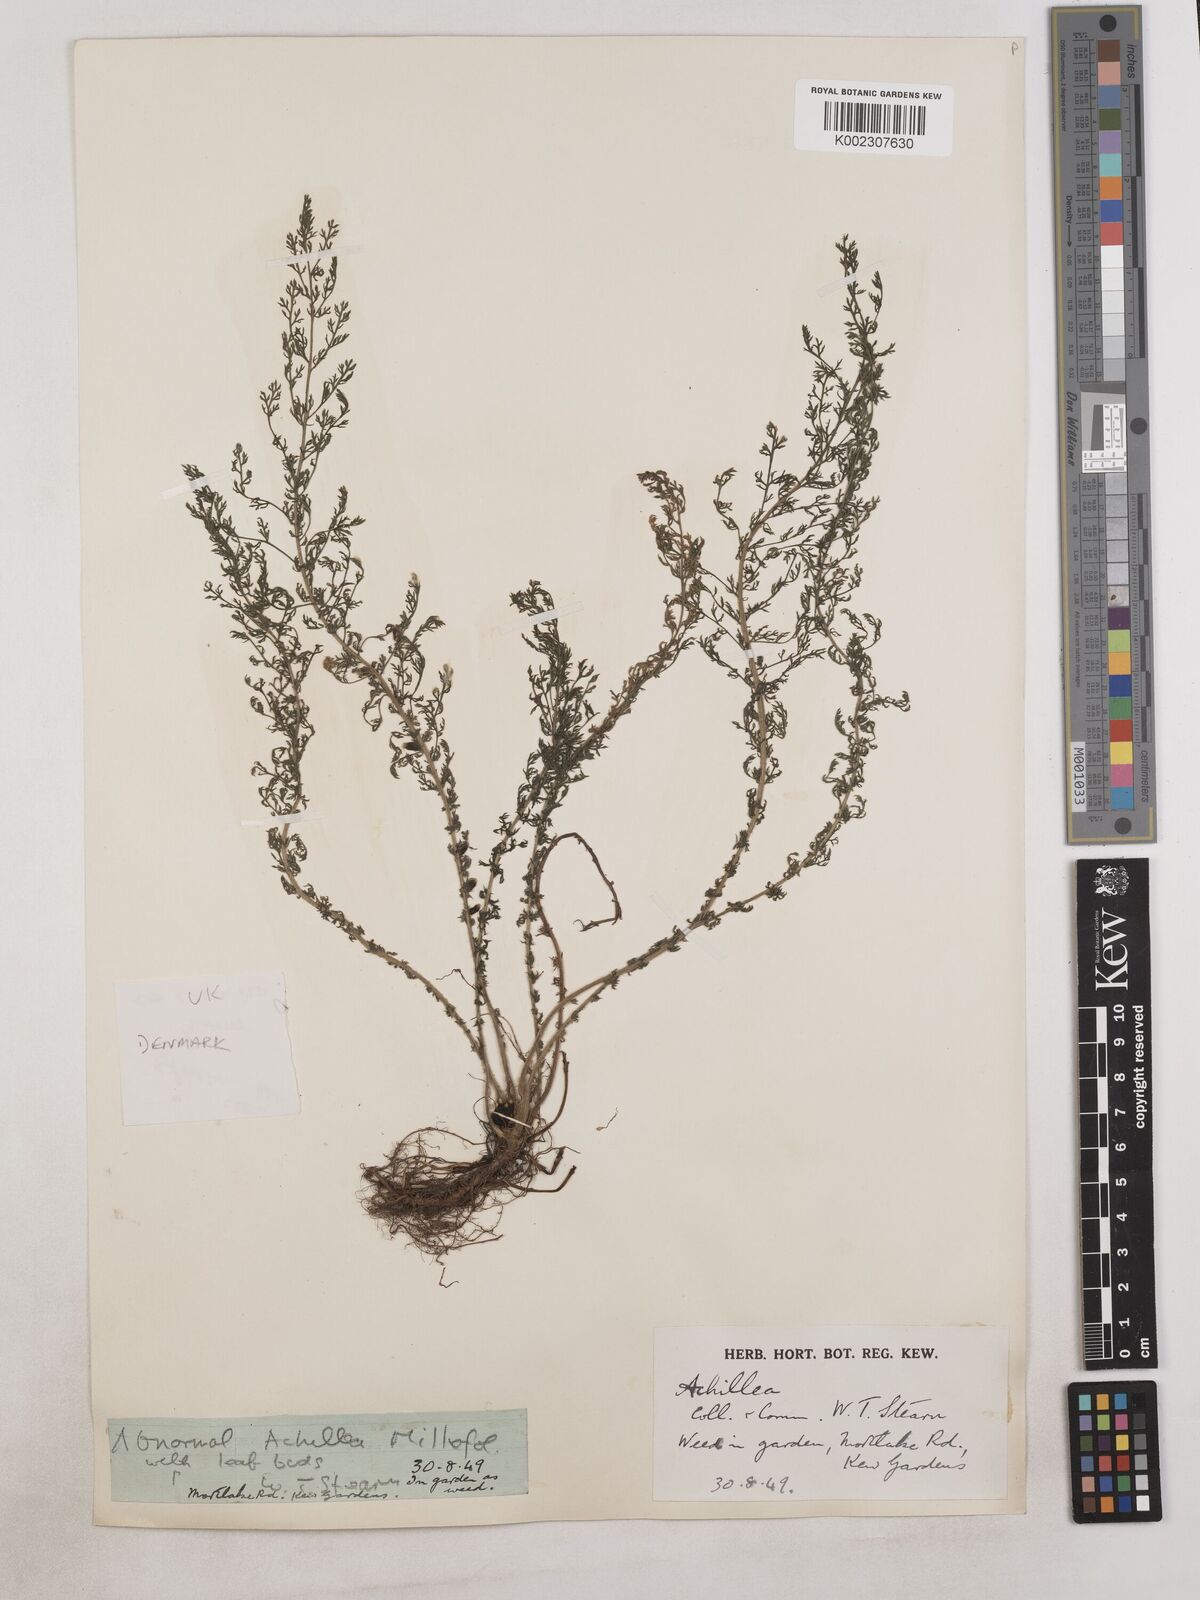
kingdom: Plantae
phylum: Tracheophyta
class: Magnoliopsida
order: Asterales
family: Asteraceae
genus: Achillea
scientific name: Achillea
